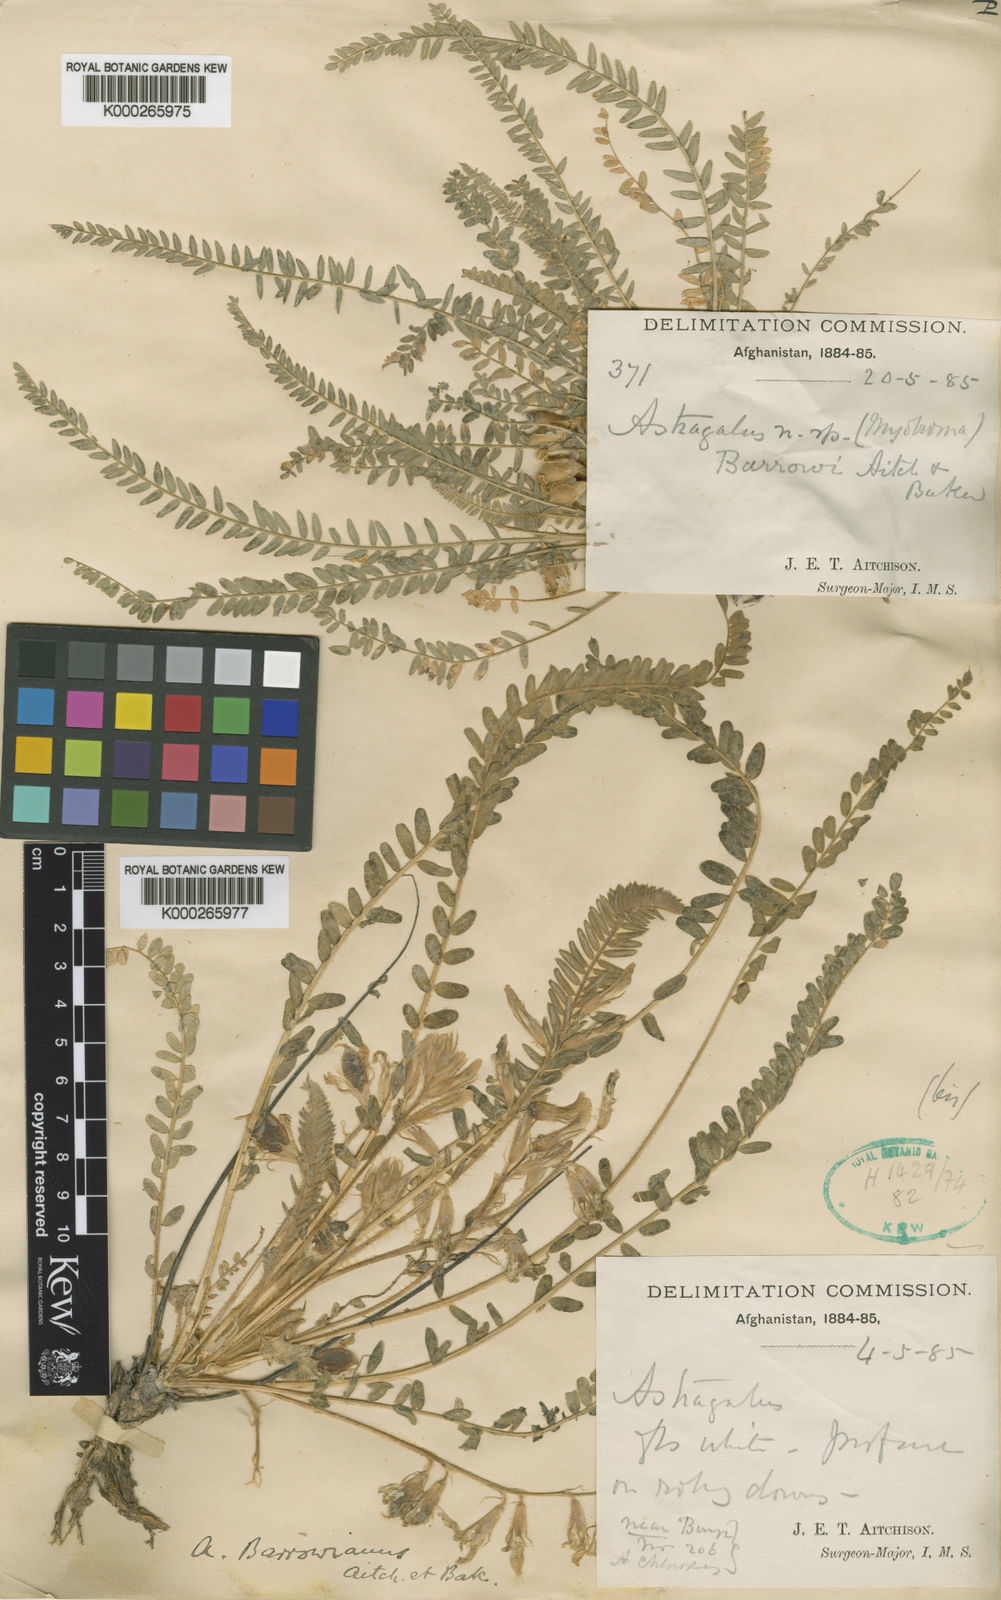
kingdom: Plantae
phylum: Tracheophyta
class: Magnoliopsida
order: Fabales
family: Fabaceae
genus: Astragalus
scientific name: Astragalus citrinus
